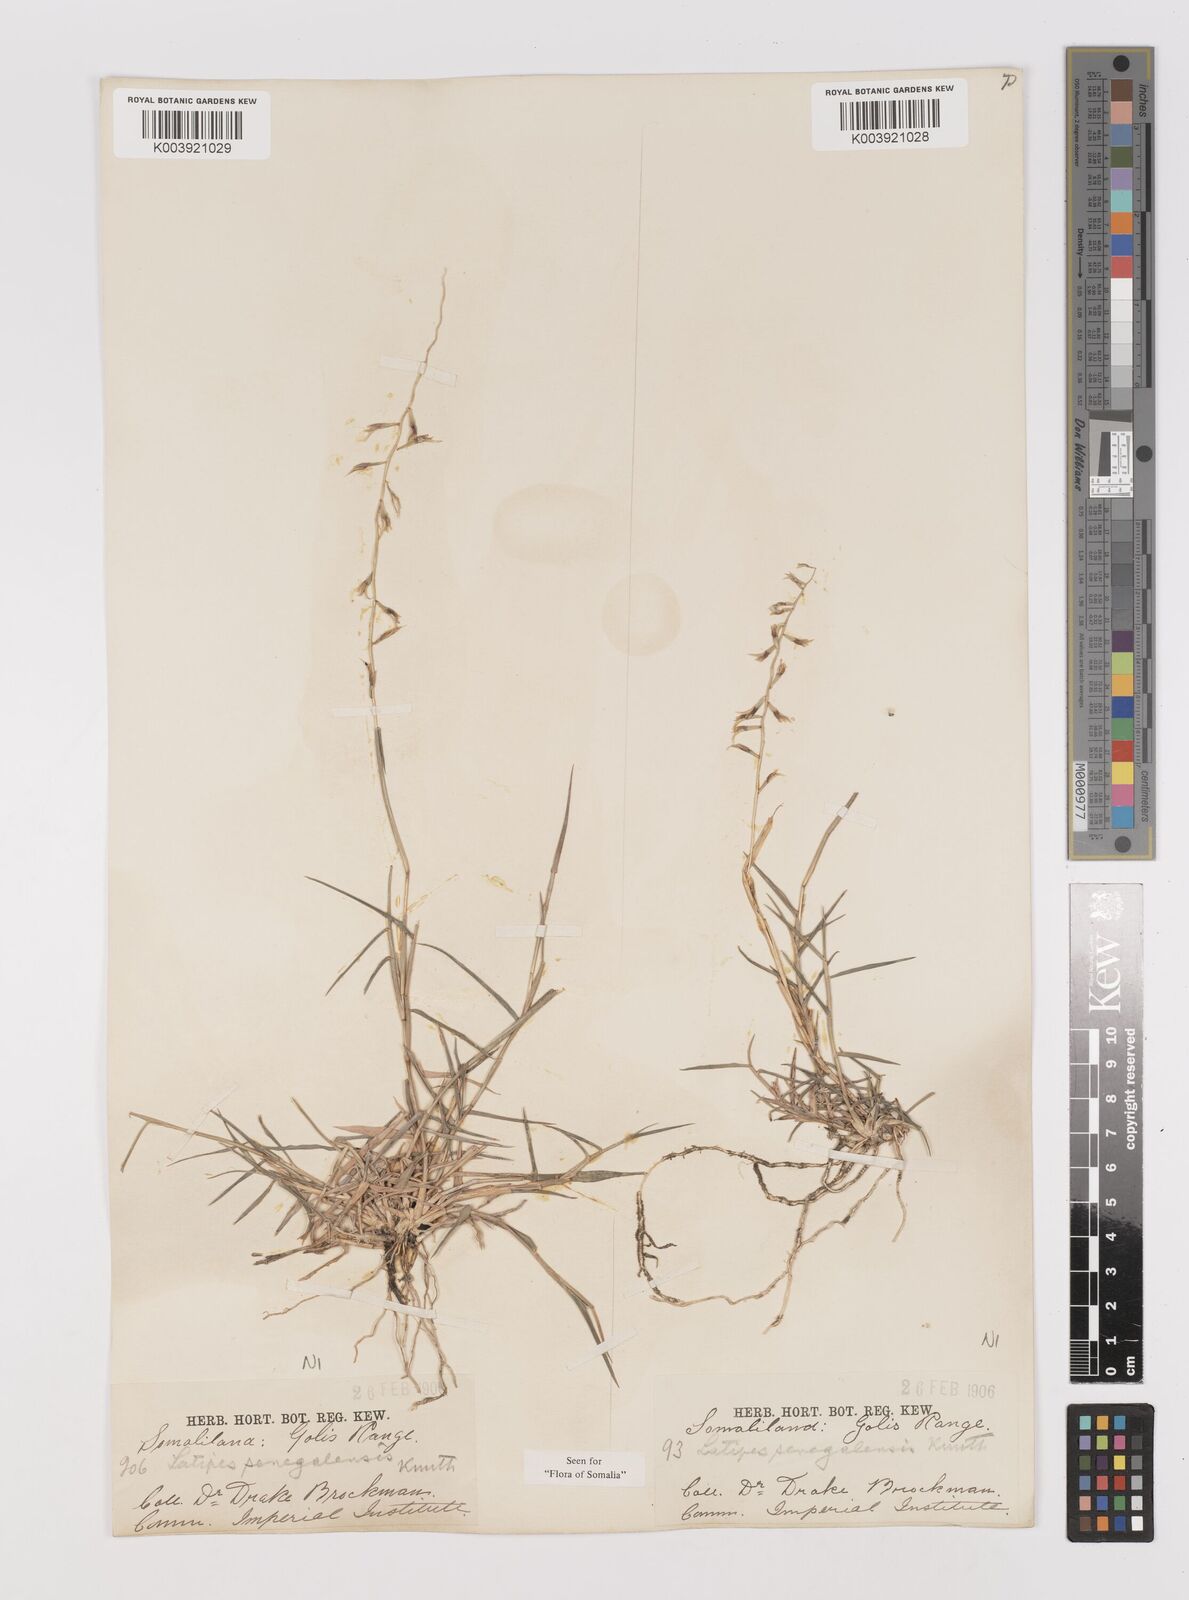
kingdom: Plantae
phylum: Tracheophyta
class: Liliopsida
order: Poales
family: Poaceae
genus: Leptothrium
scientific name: Leptothrium senegalense
